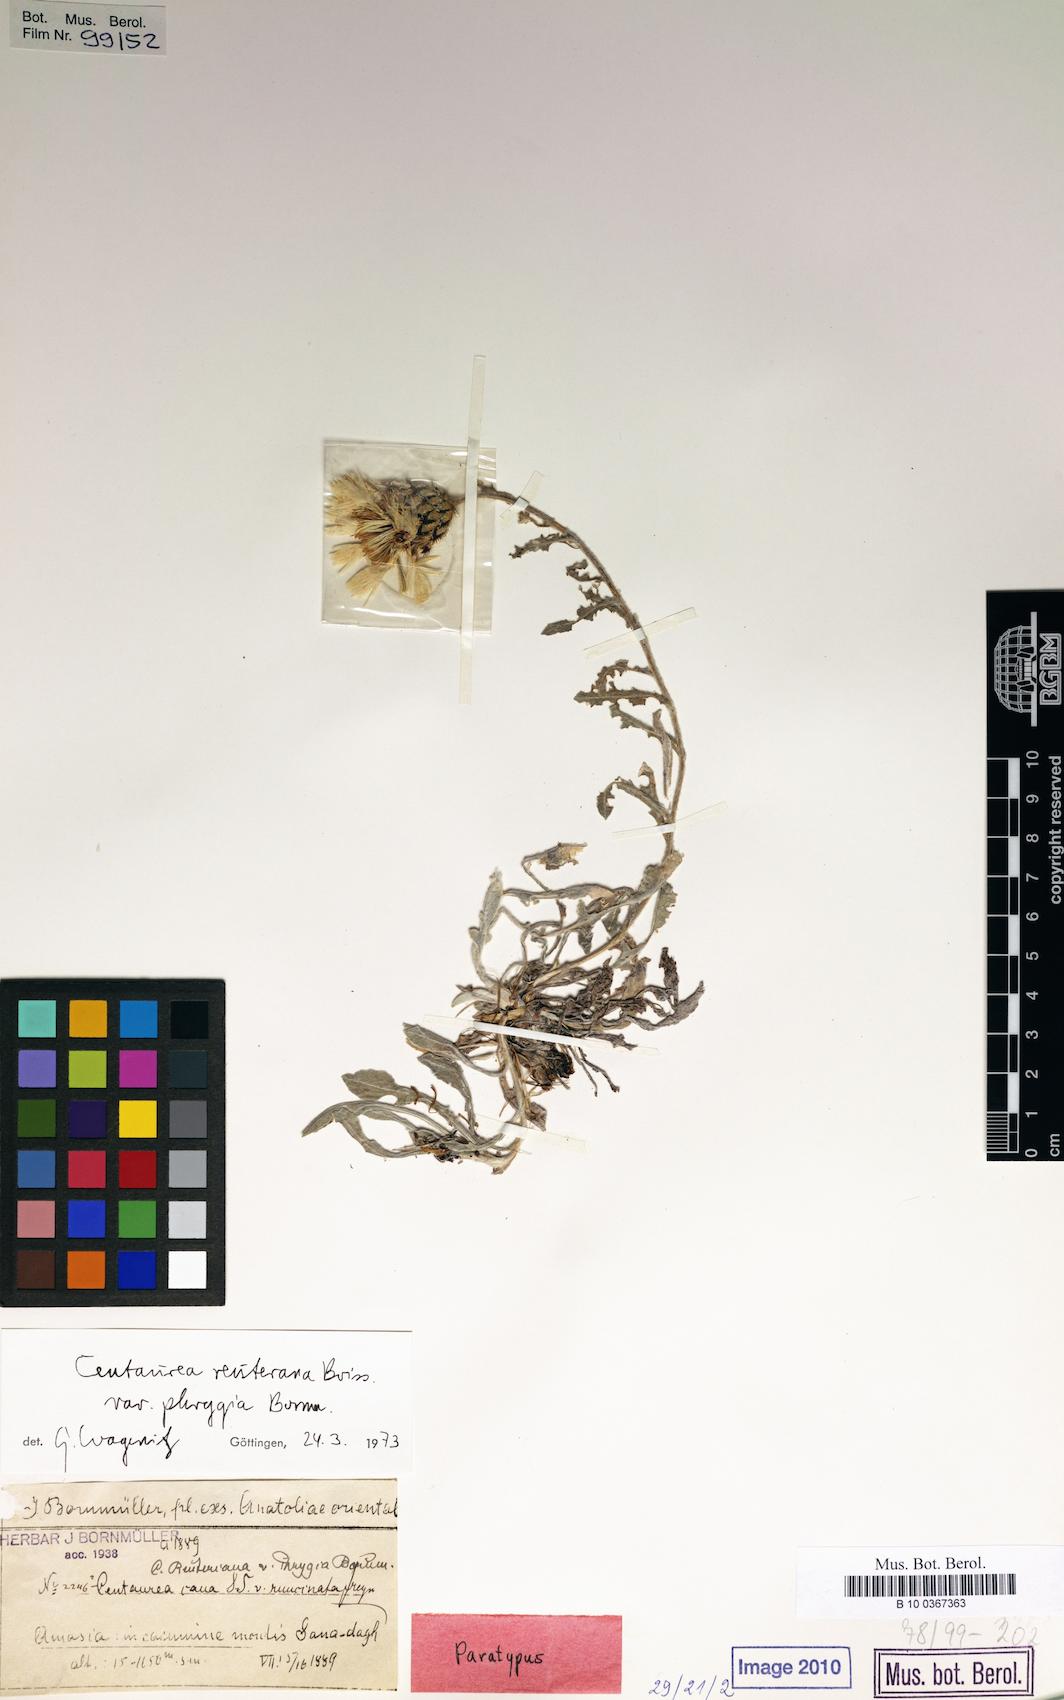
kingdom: Plantae
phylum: Tracheophyta
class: Magnoliopsida
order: Asterales
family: Asteraceae
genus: Centaurea
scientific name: Centaurea reuteriana
